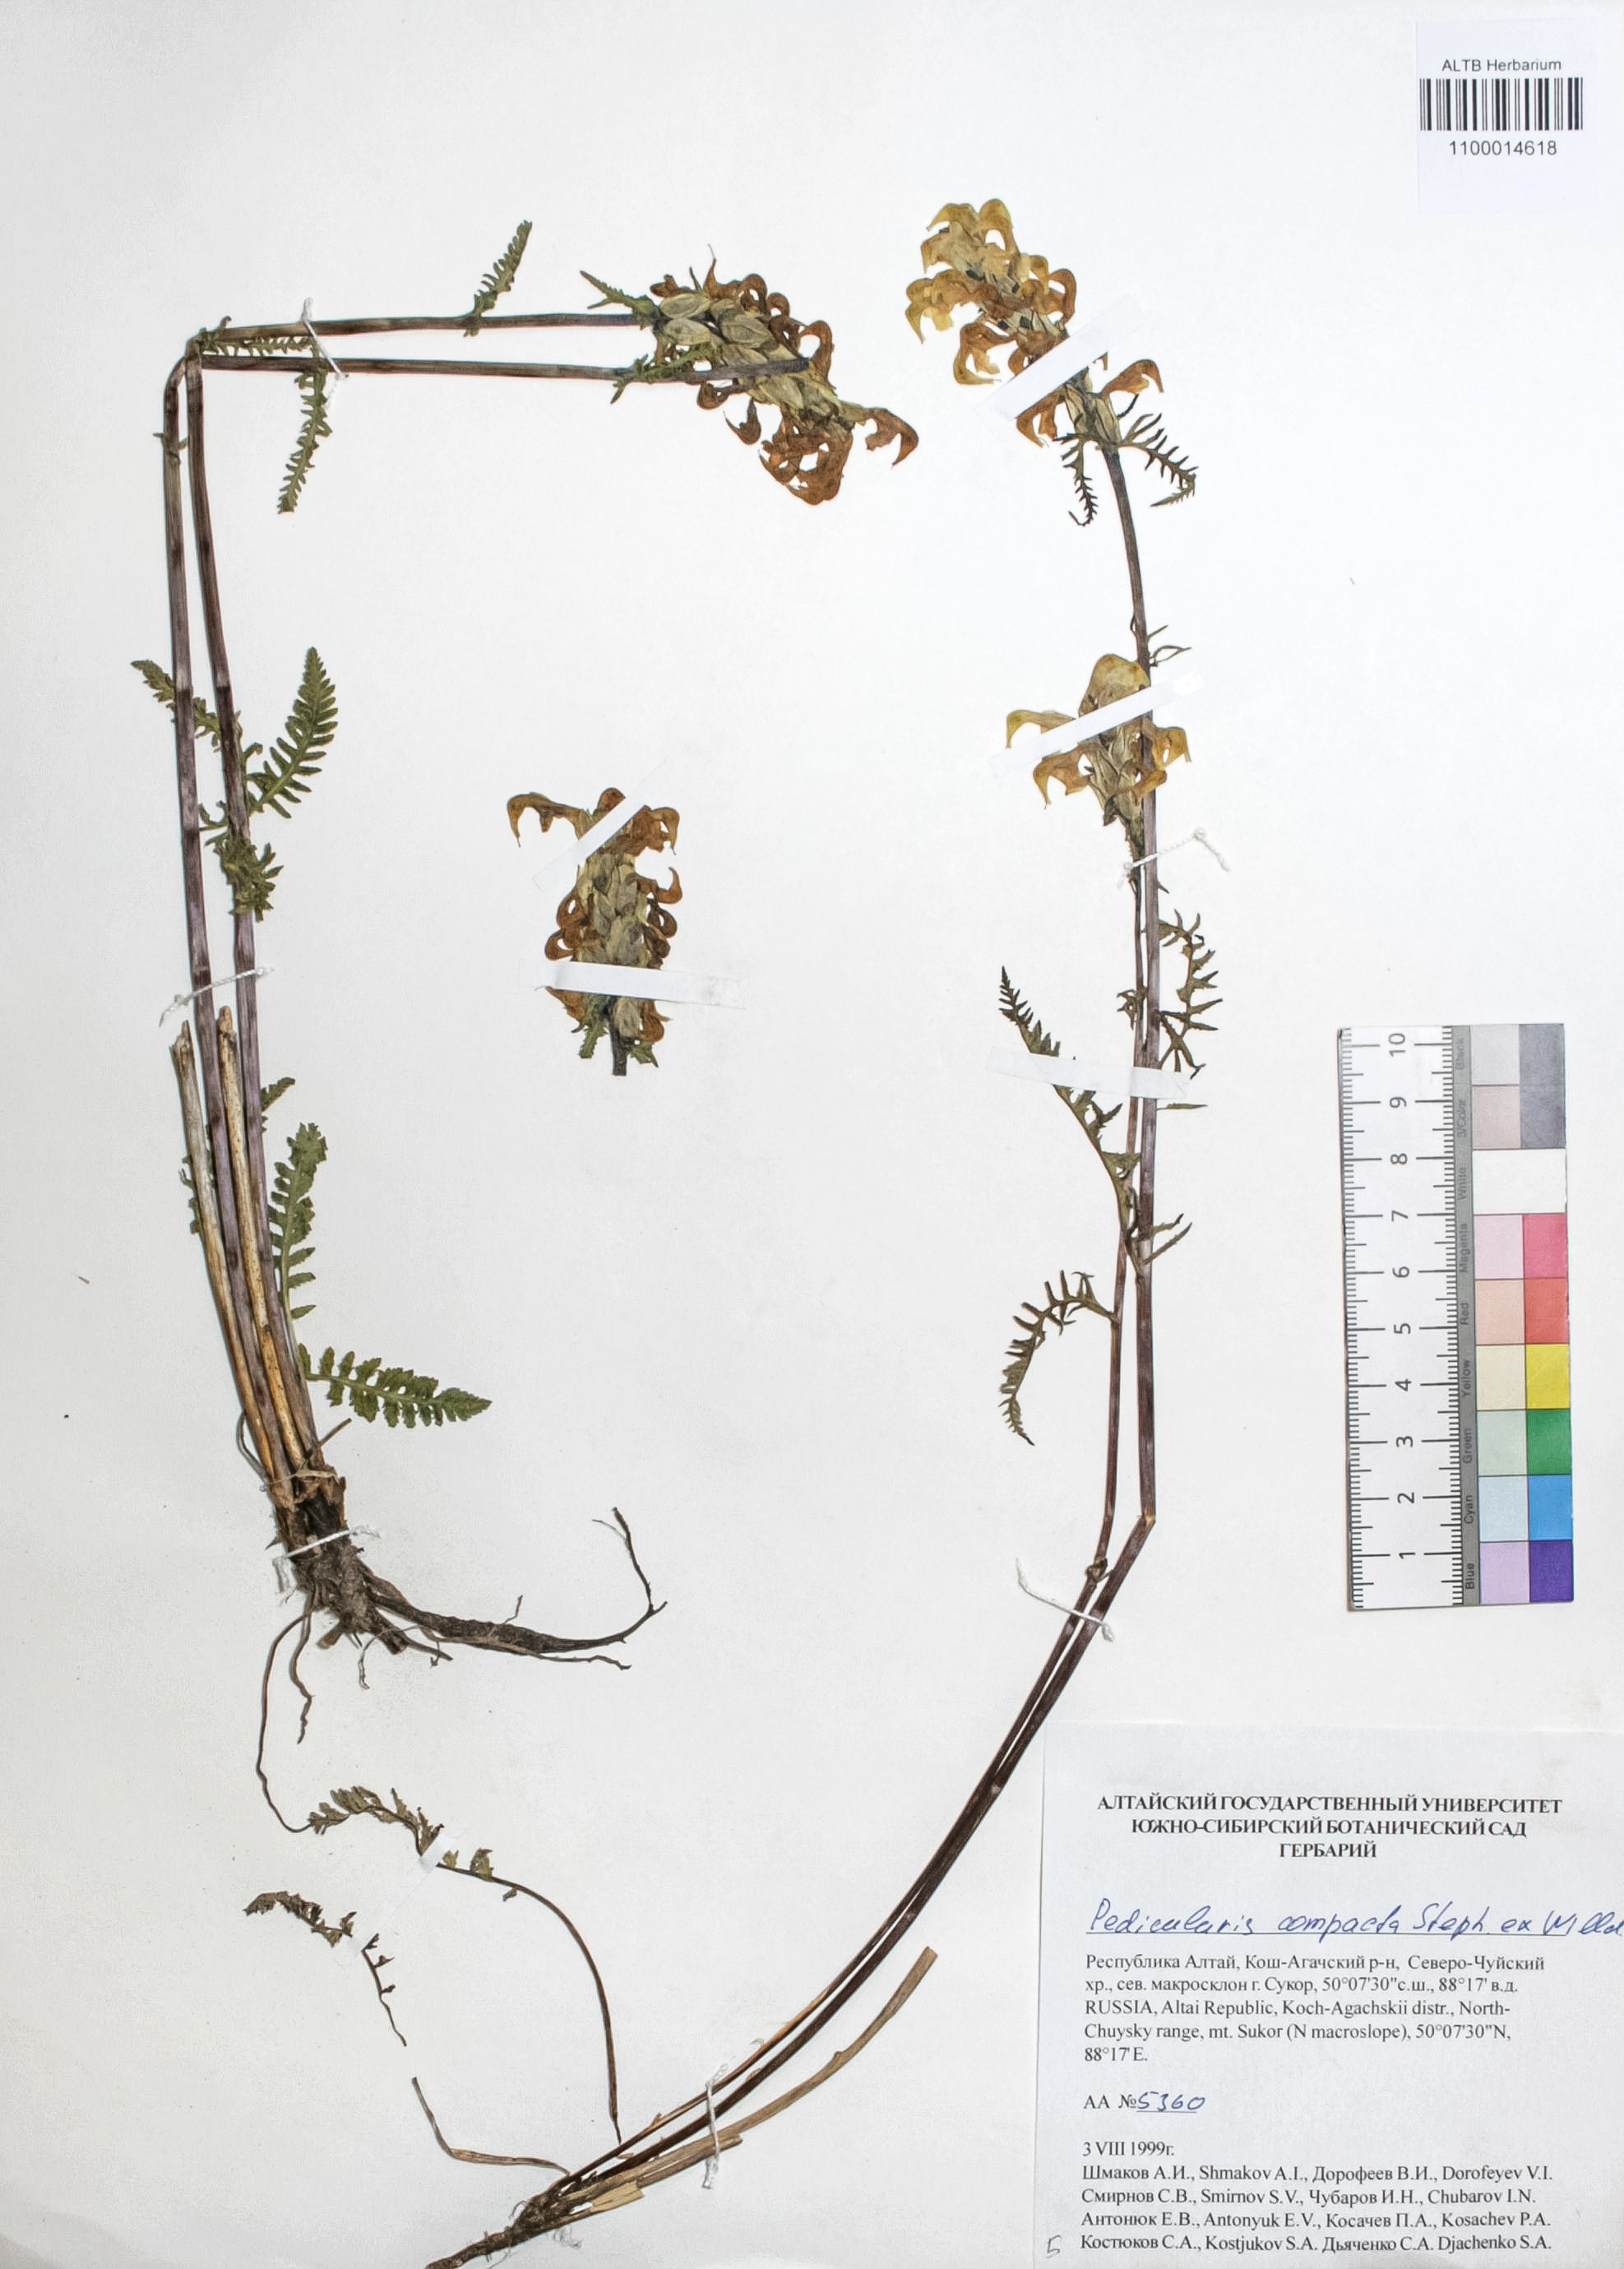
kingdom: Plantae
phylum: Tracheophyta
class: Magnoliopsida
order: Lamiales
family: Orobanchaceae
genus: Pedicularis
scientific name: Pedicularis compacta
